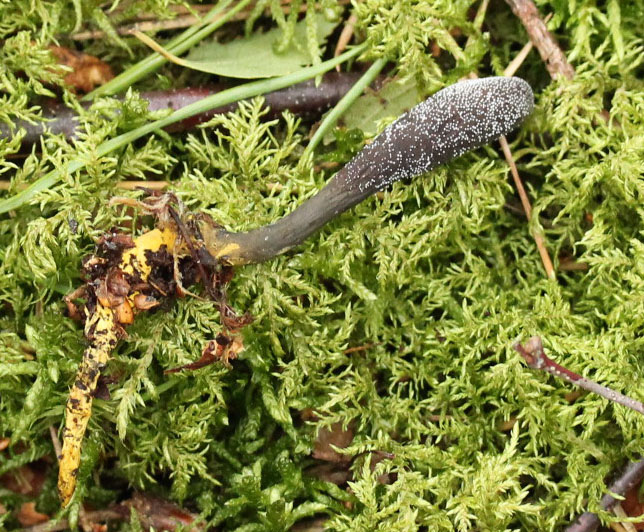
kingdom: Fungi
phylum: Ascomycota
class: Sordariomycetes
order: Hypocreales
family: Ophiocordycipitaceae
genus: Tolypocladium
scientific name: Tolypocladium ophioglossoides
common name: slank snyltekølle
